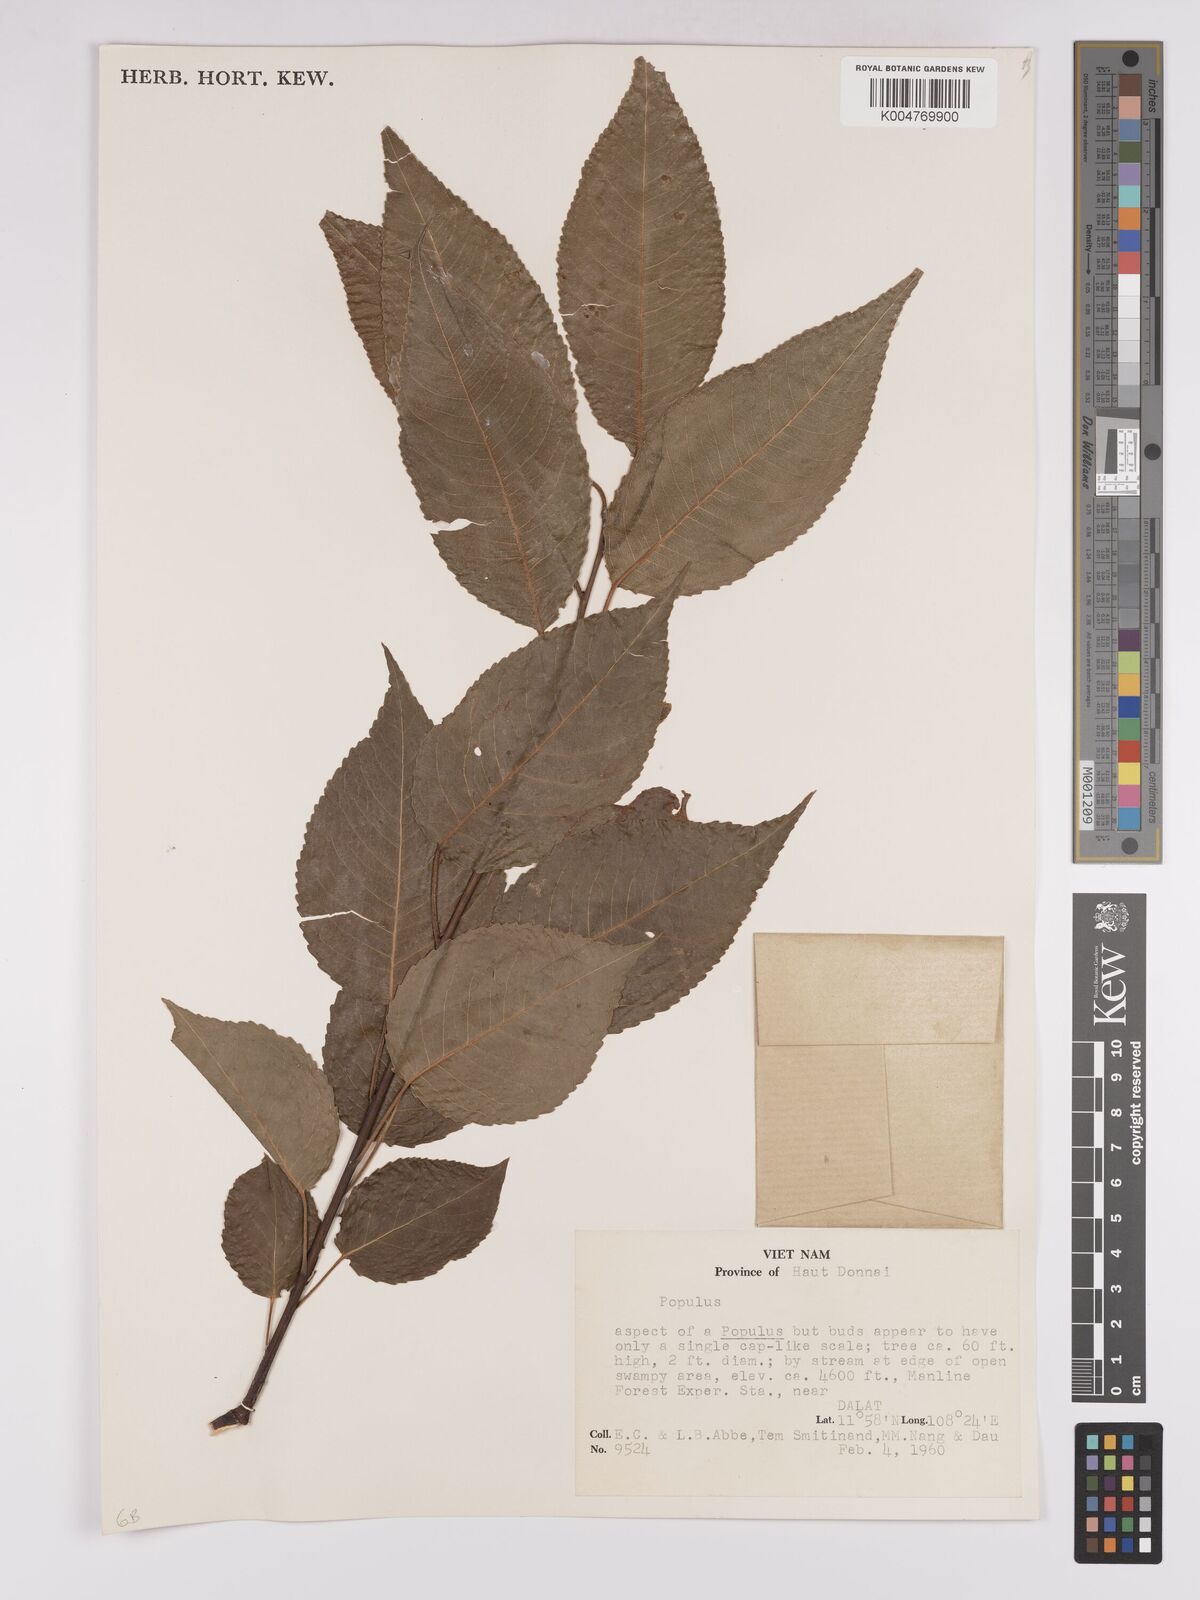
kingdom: Plantae
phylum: Tracheophyta
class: Magnoliopsida
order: Malpighiales
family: Salicaceae
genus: Populus
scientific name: Populus
